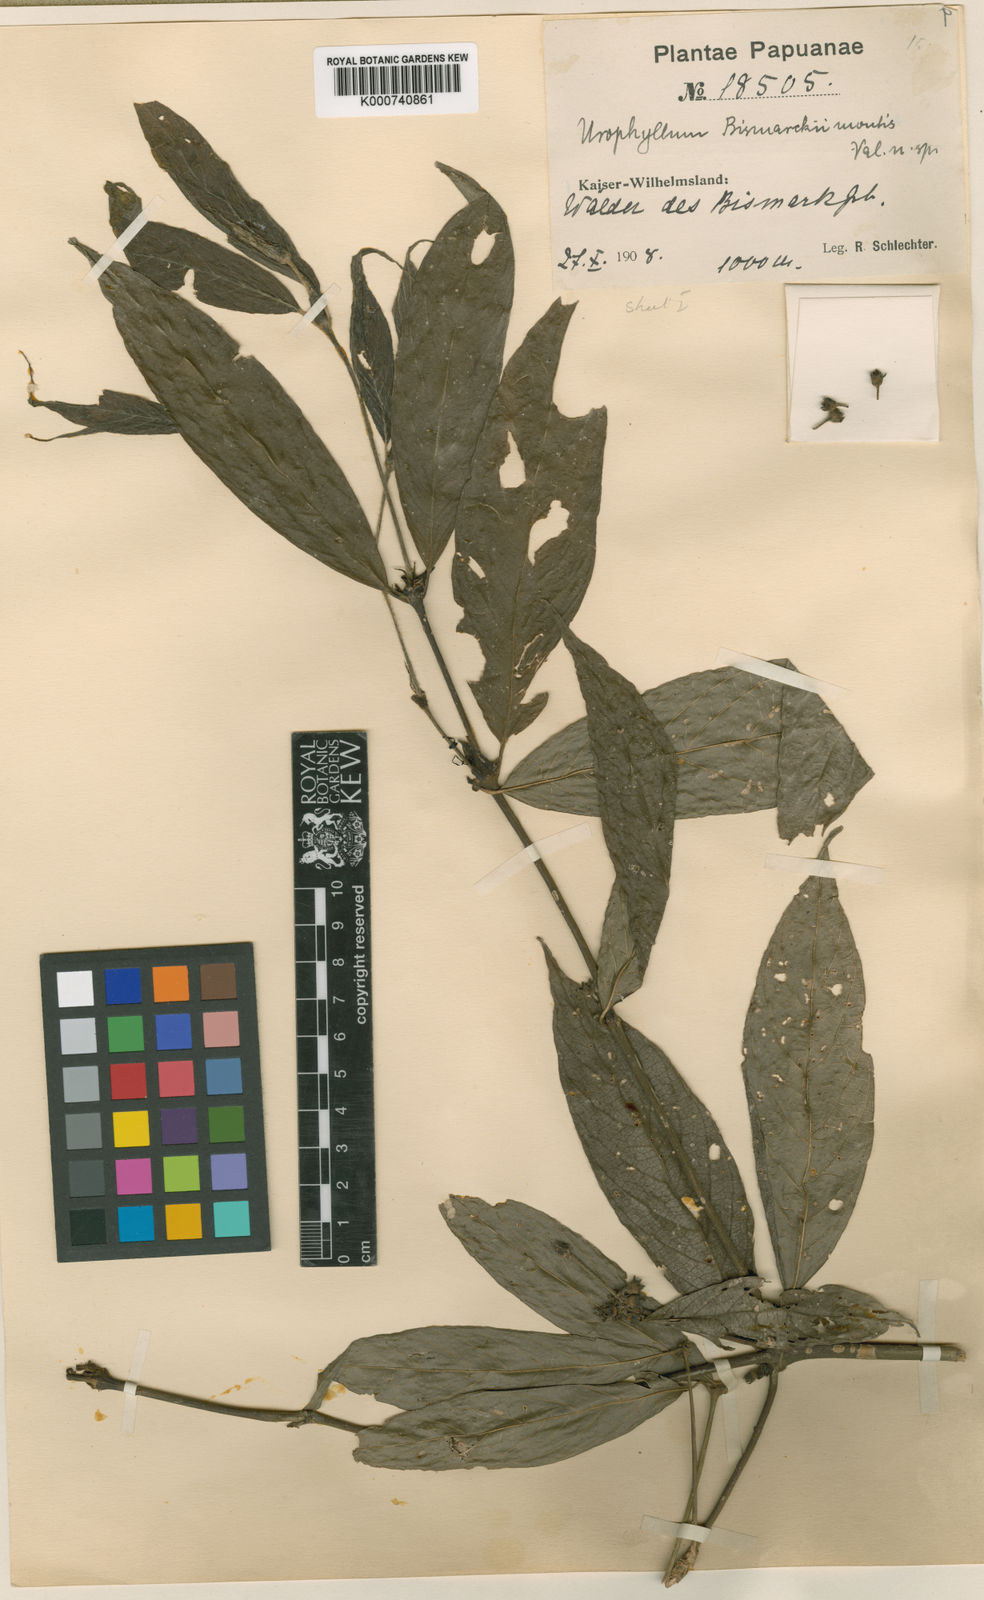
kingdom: Plantae
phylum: Tracheophyta
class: Magnoliopsida
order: Gentianales
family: Rubiaceae
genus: Urophyllum
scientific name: Urophyllum
